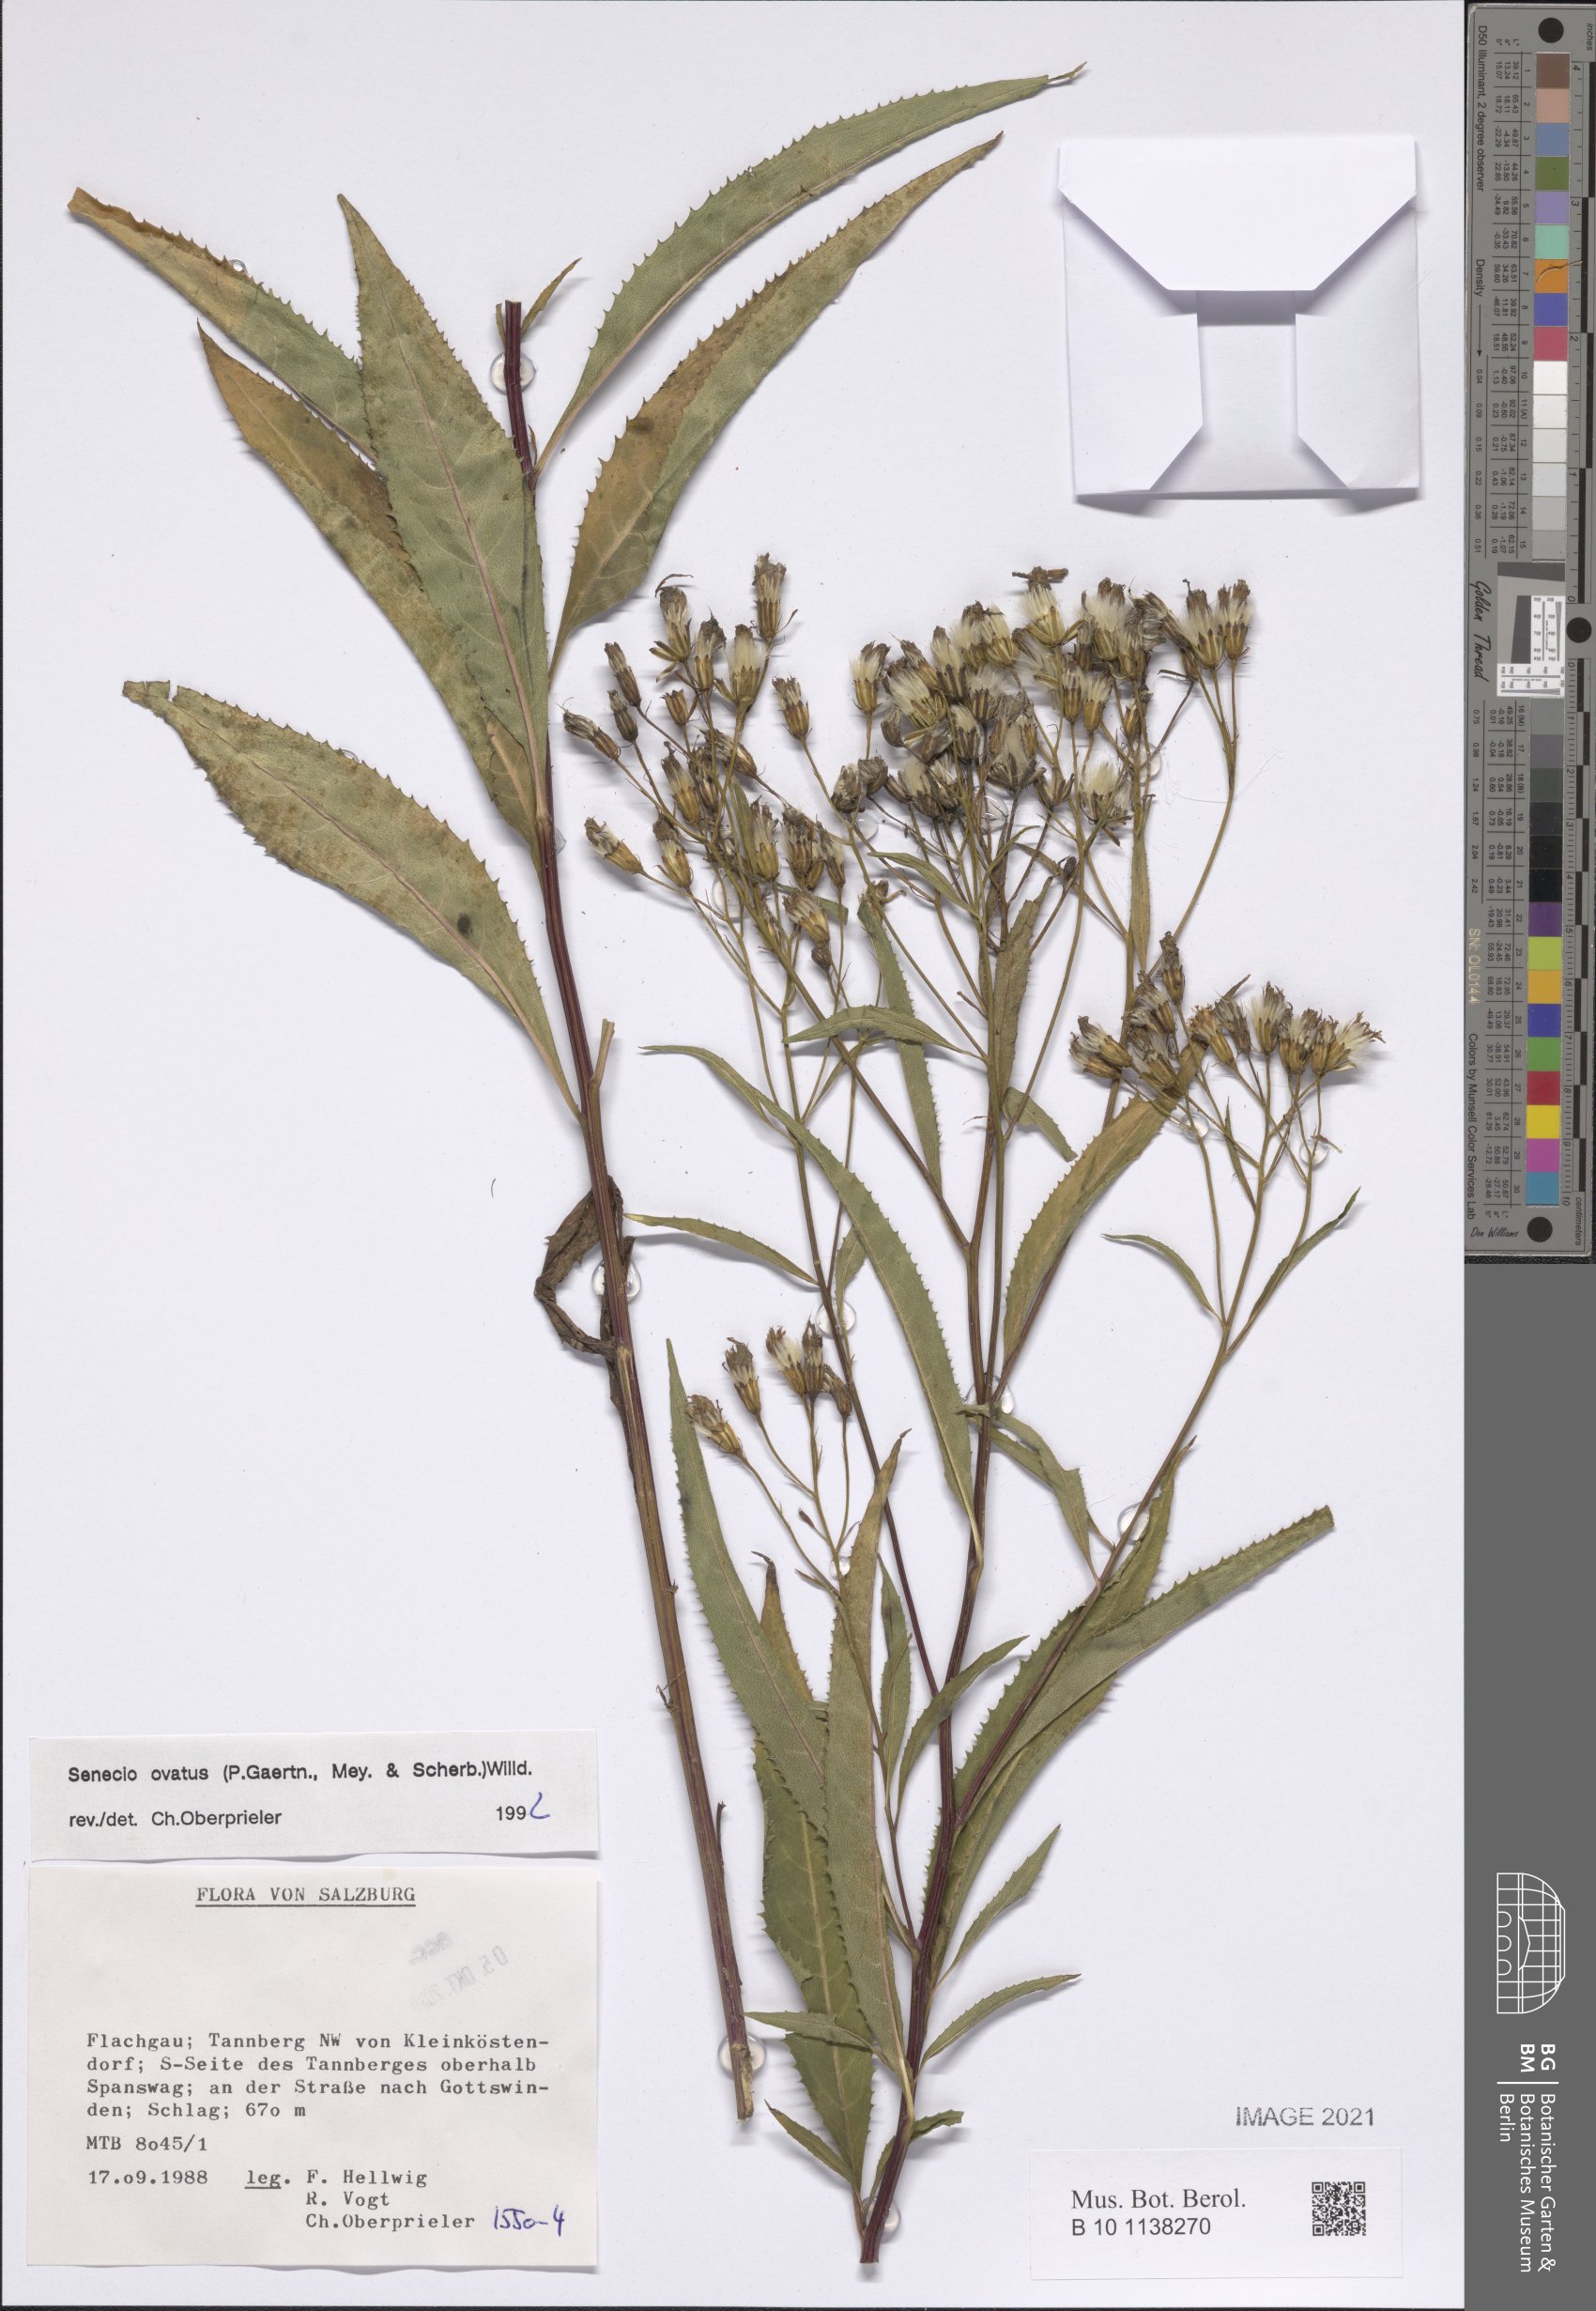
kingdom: Plantae
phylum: Tracheophyta
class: Magnoliopsida
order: Asterales
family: Asteraceae
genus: Senecio
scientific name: Senecio ovatus
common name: Wood ragwort
